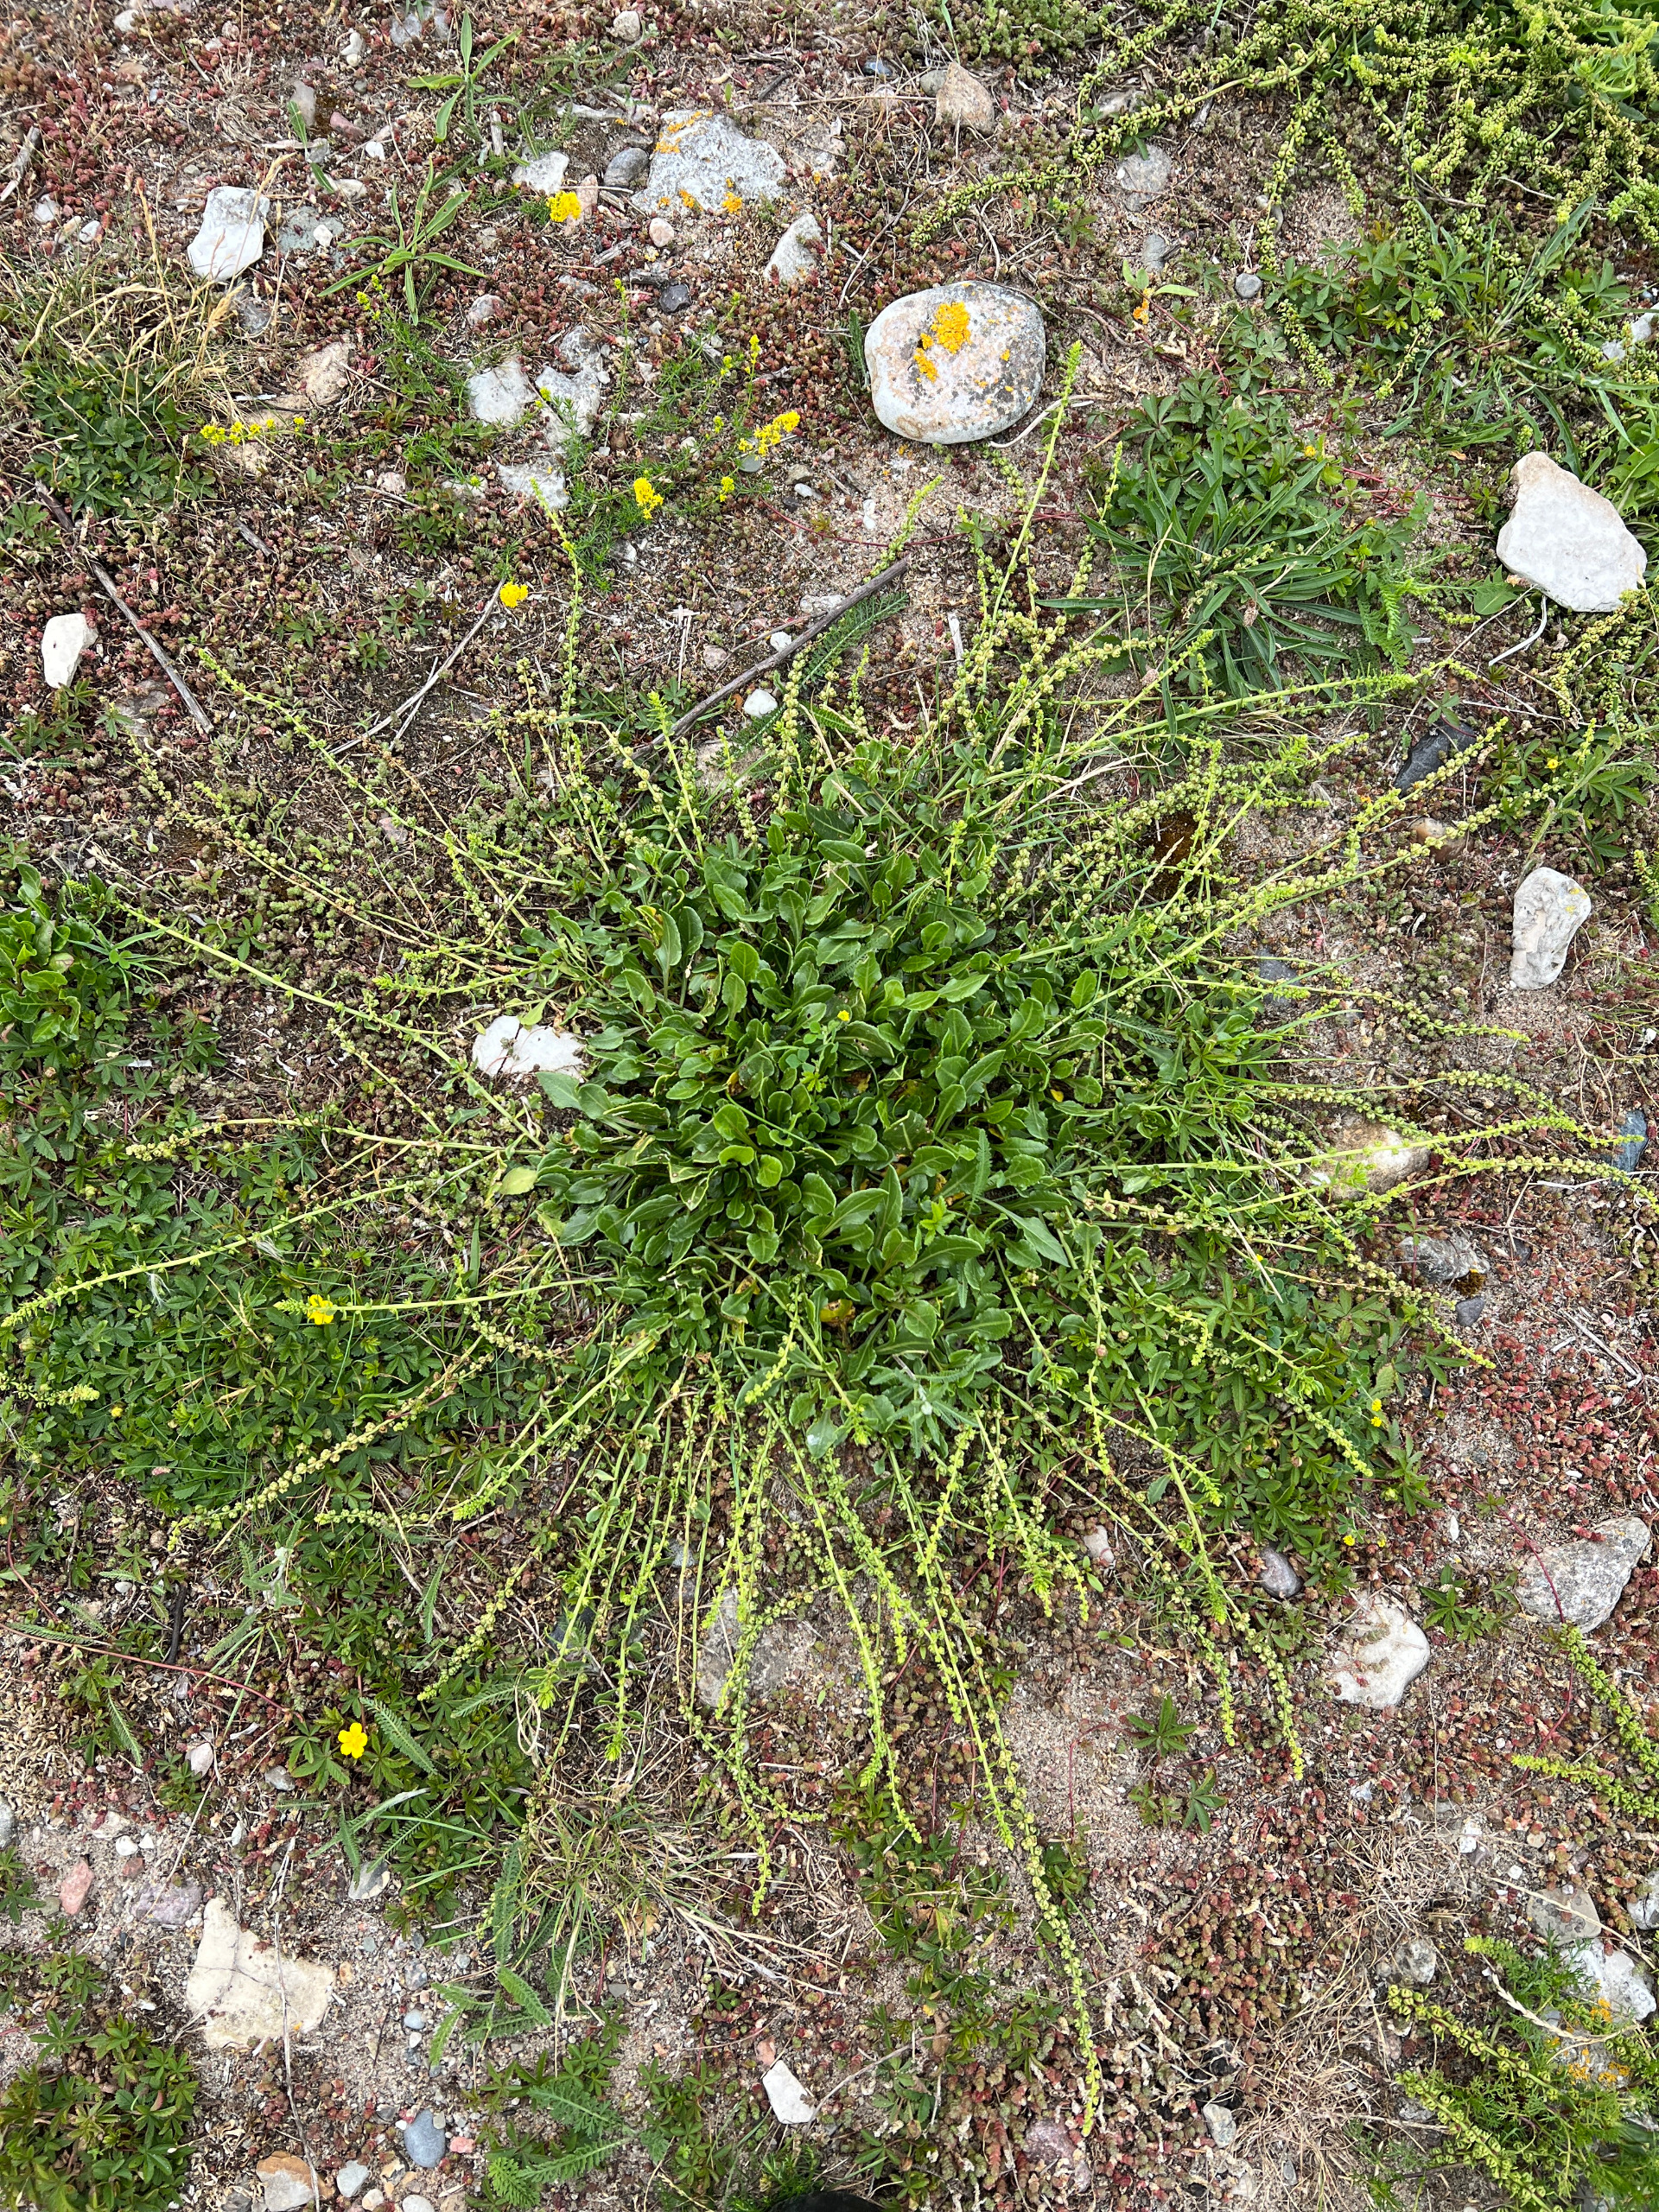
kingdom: Plantae
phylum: Tracheophyta
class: Magnoliopsida
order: Caryophyllales
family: Amaranthaceae
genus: Beta
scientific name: Beta maritima
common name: Strand-bede
